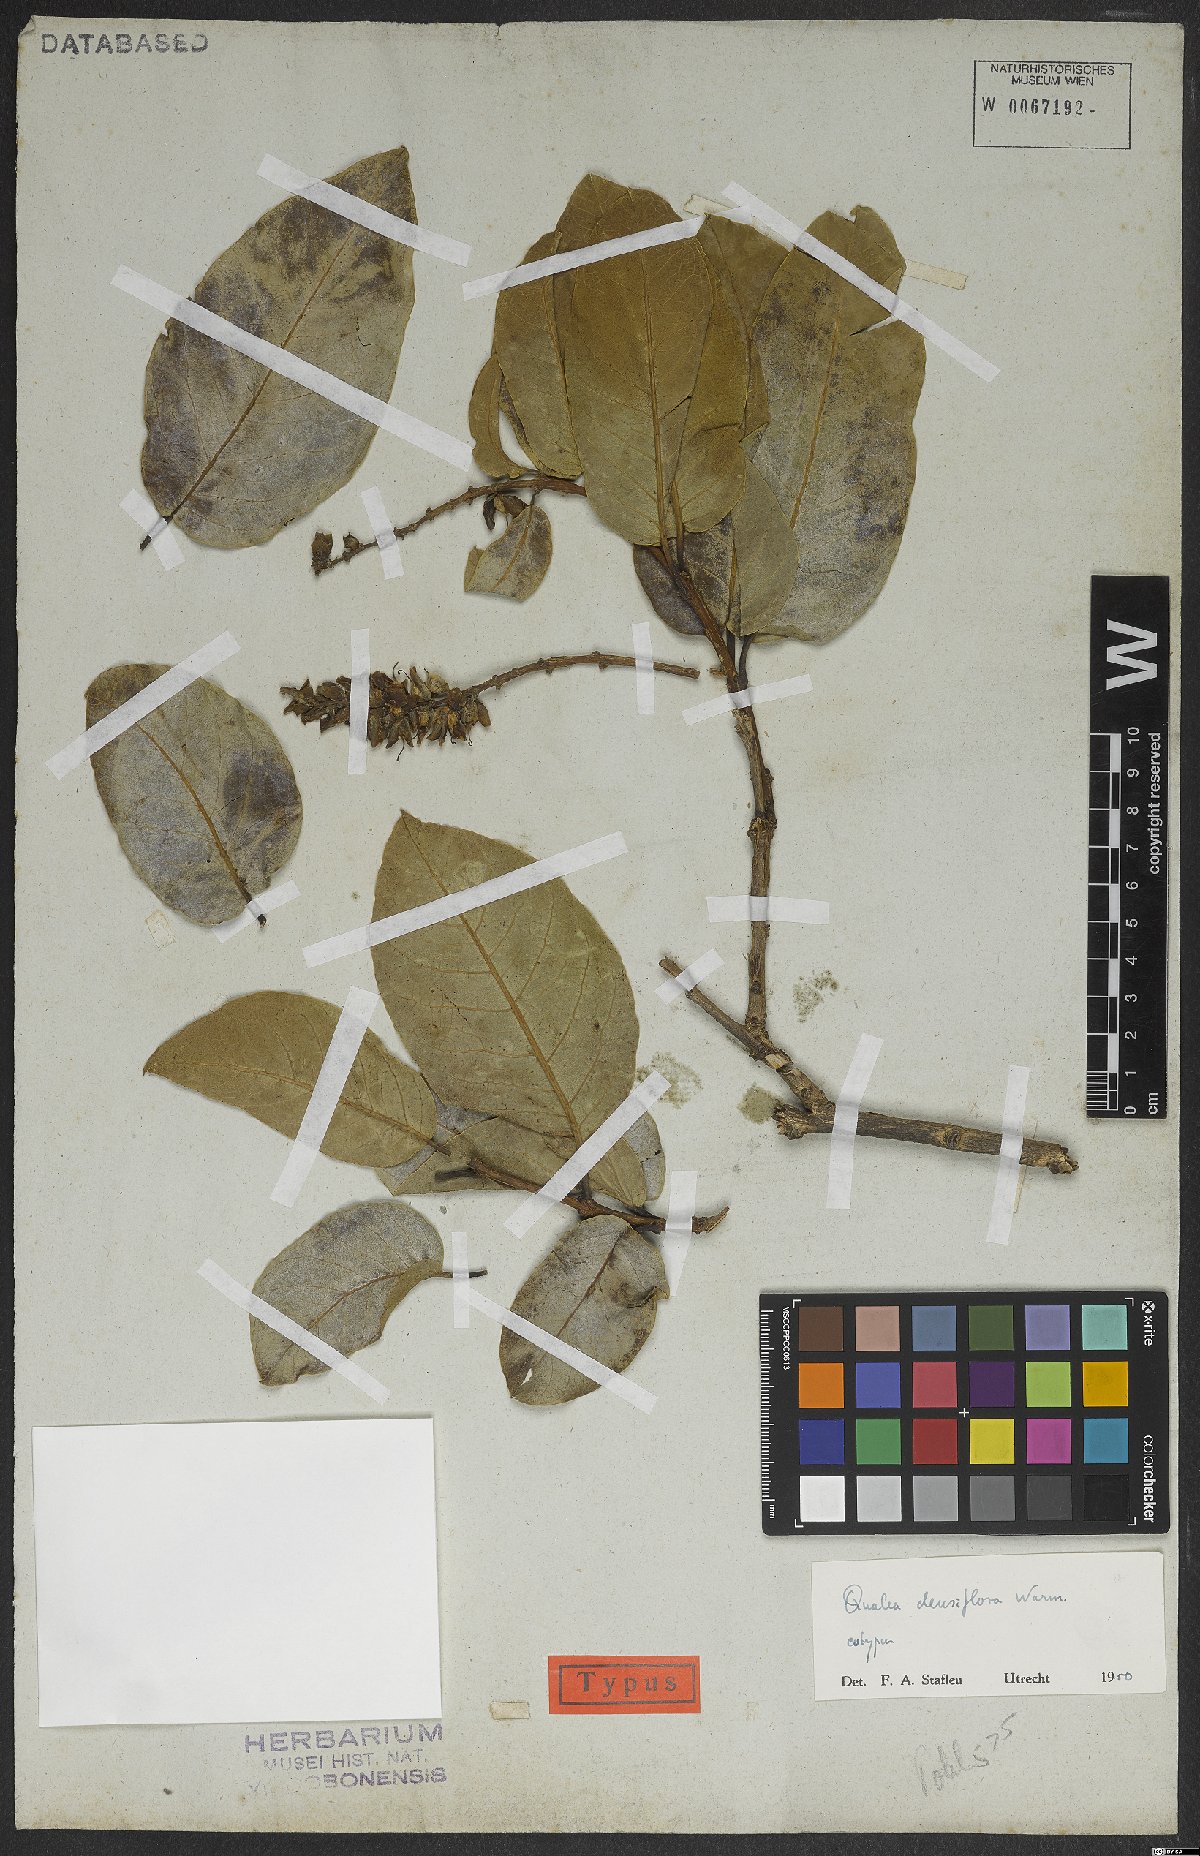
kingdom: Plantae
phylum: Tracheophyta
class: Magnoliopsida
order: Myrtales
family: Vochysiaceae
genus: Qualea
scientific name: Qualea densiflora
